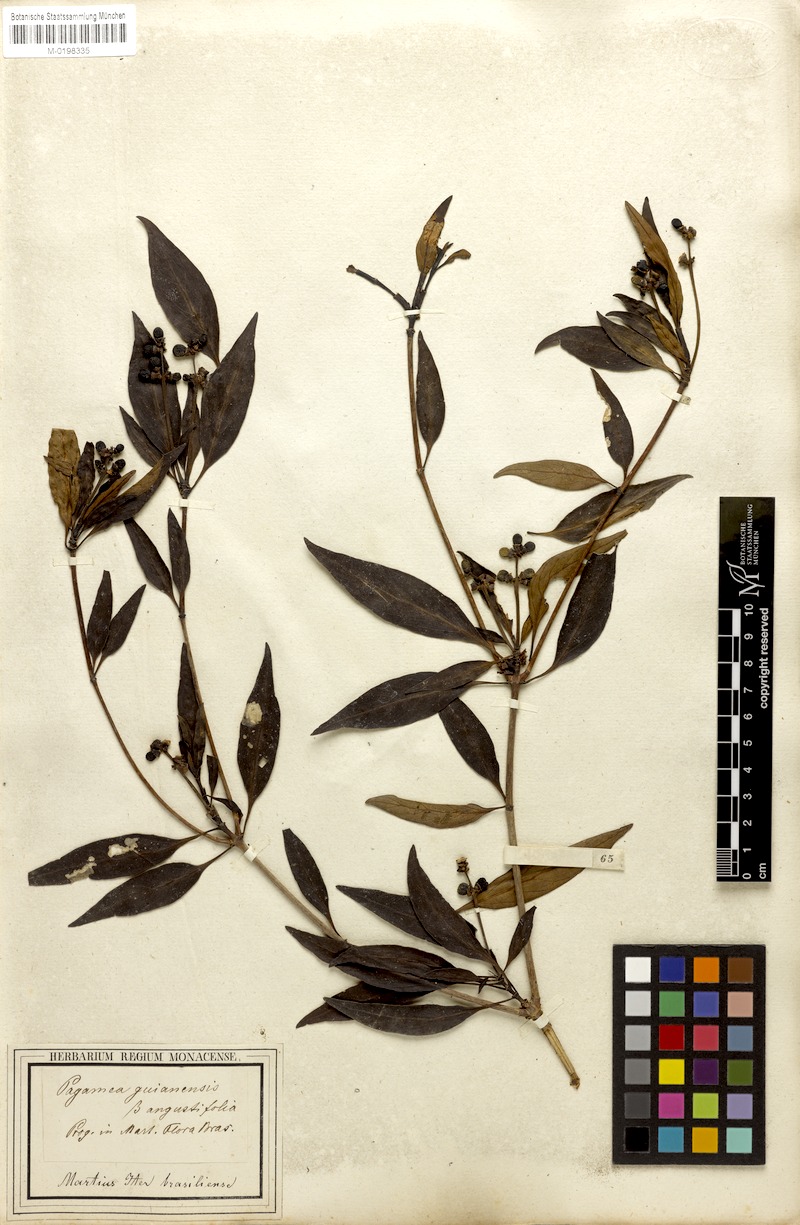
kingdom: Plantae
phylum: Tracheophyta
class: Magnoliopsida
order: Gentianales
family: Rubiaceae
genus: Pagamea
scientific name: Pagamea guianensis
